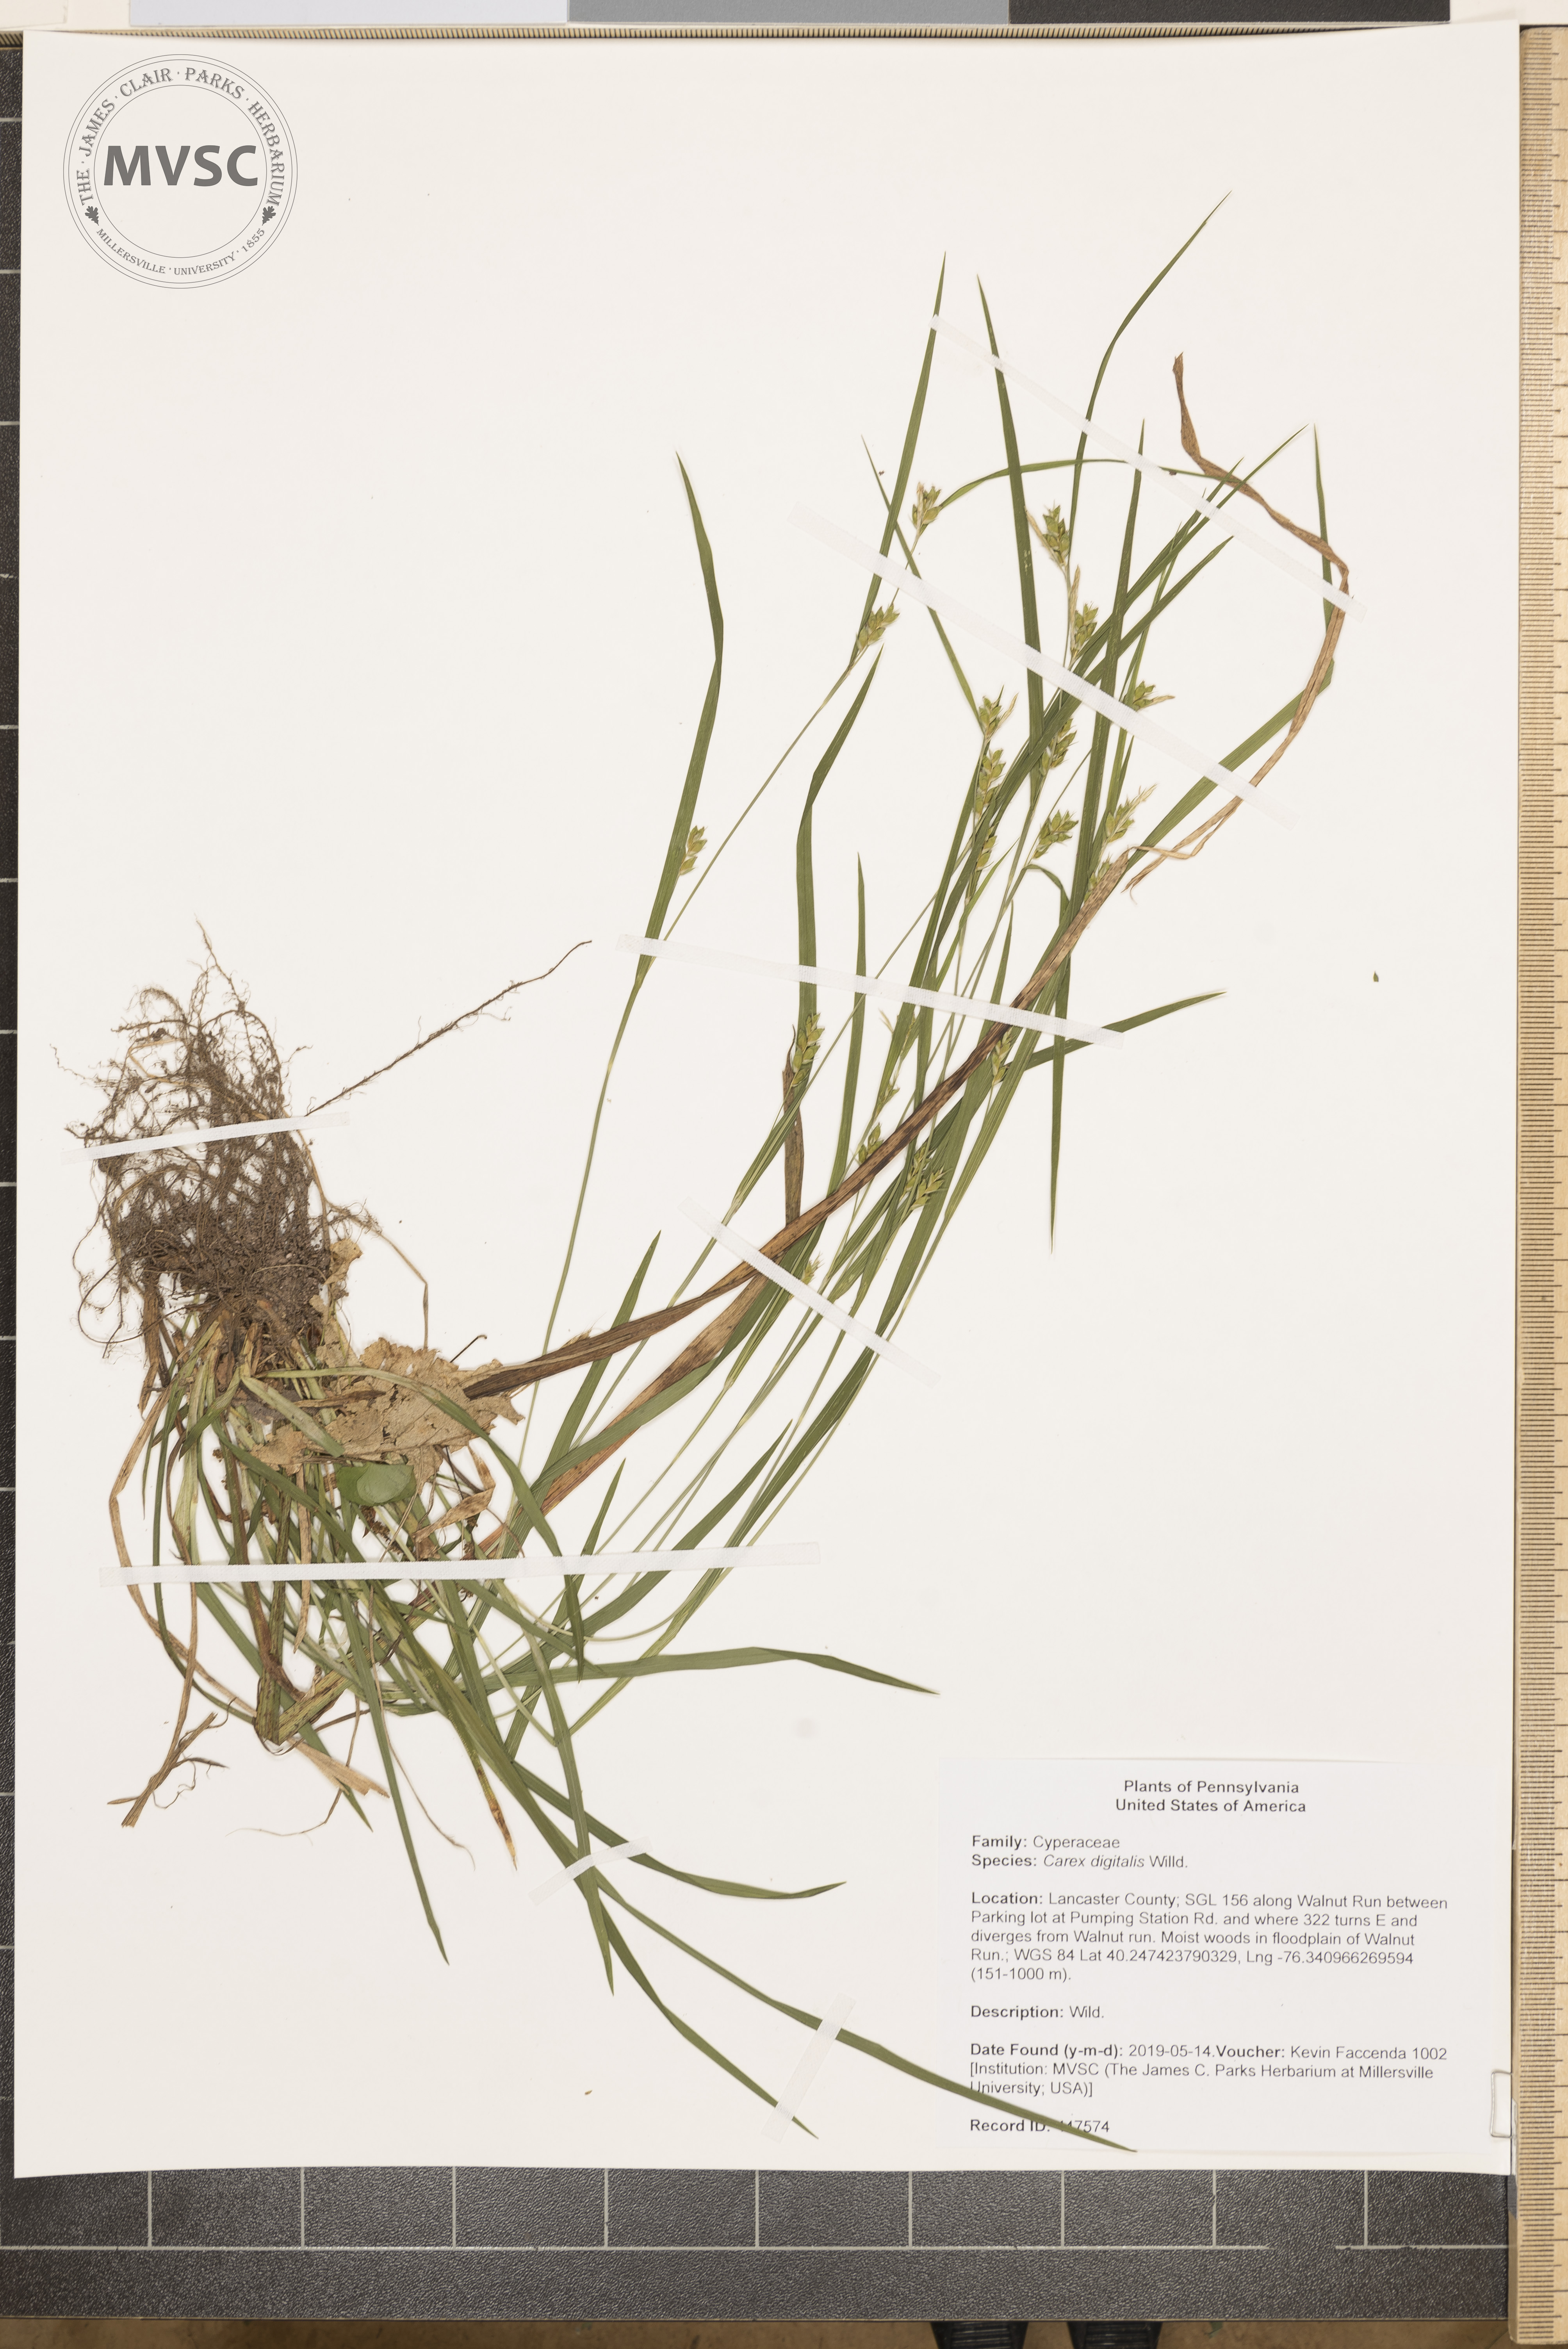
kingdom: Plantae
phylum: Tracheophyta
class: Liliopsida
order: Poales
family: Cyperaceae
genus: Carex
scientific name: Carex digitalis
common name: Slender wood sedge
